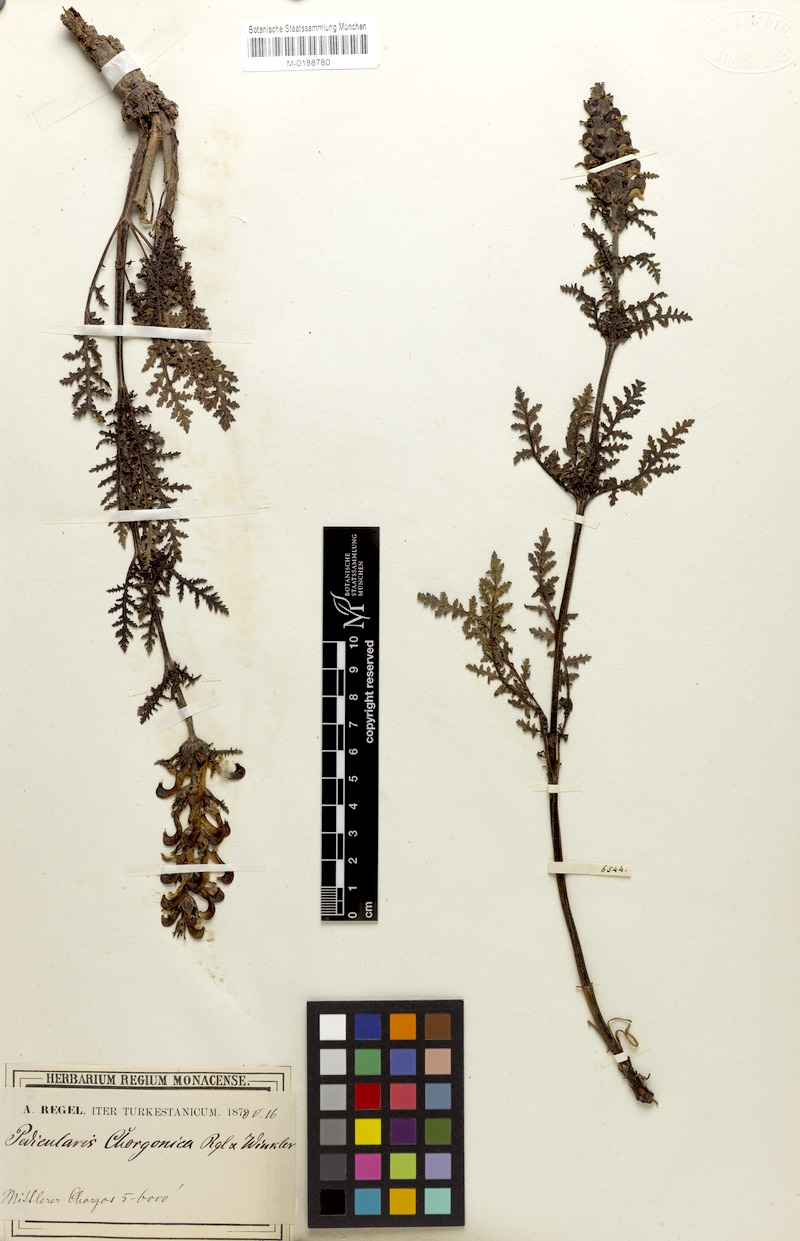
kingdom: Plantae
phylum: Tracheophyta
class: Magnoliopsida
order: Lamiales
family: Orobanchaceae
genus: Pedicularis
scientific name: Pedicularis chorgonica
